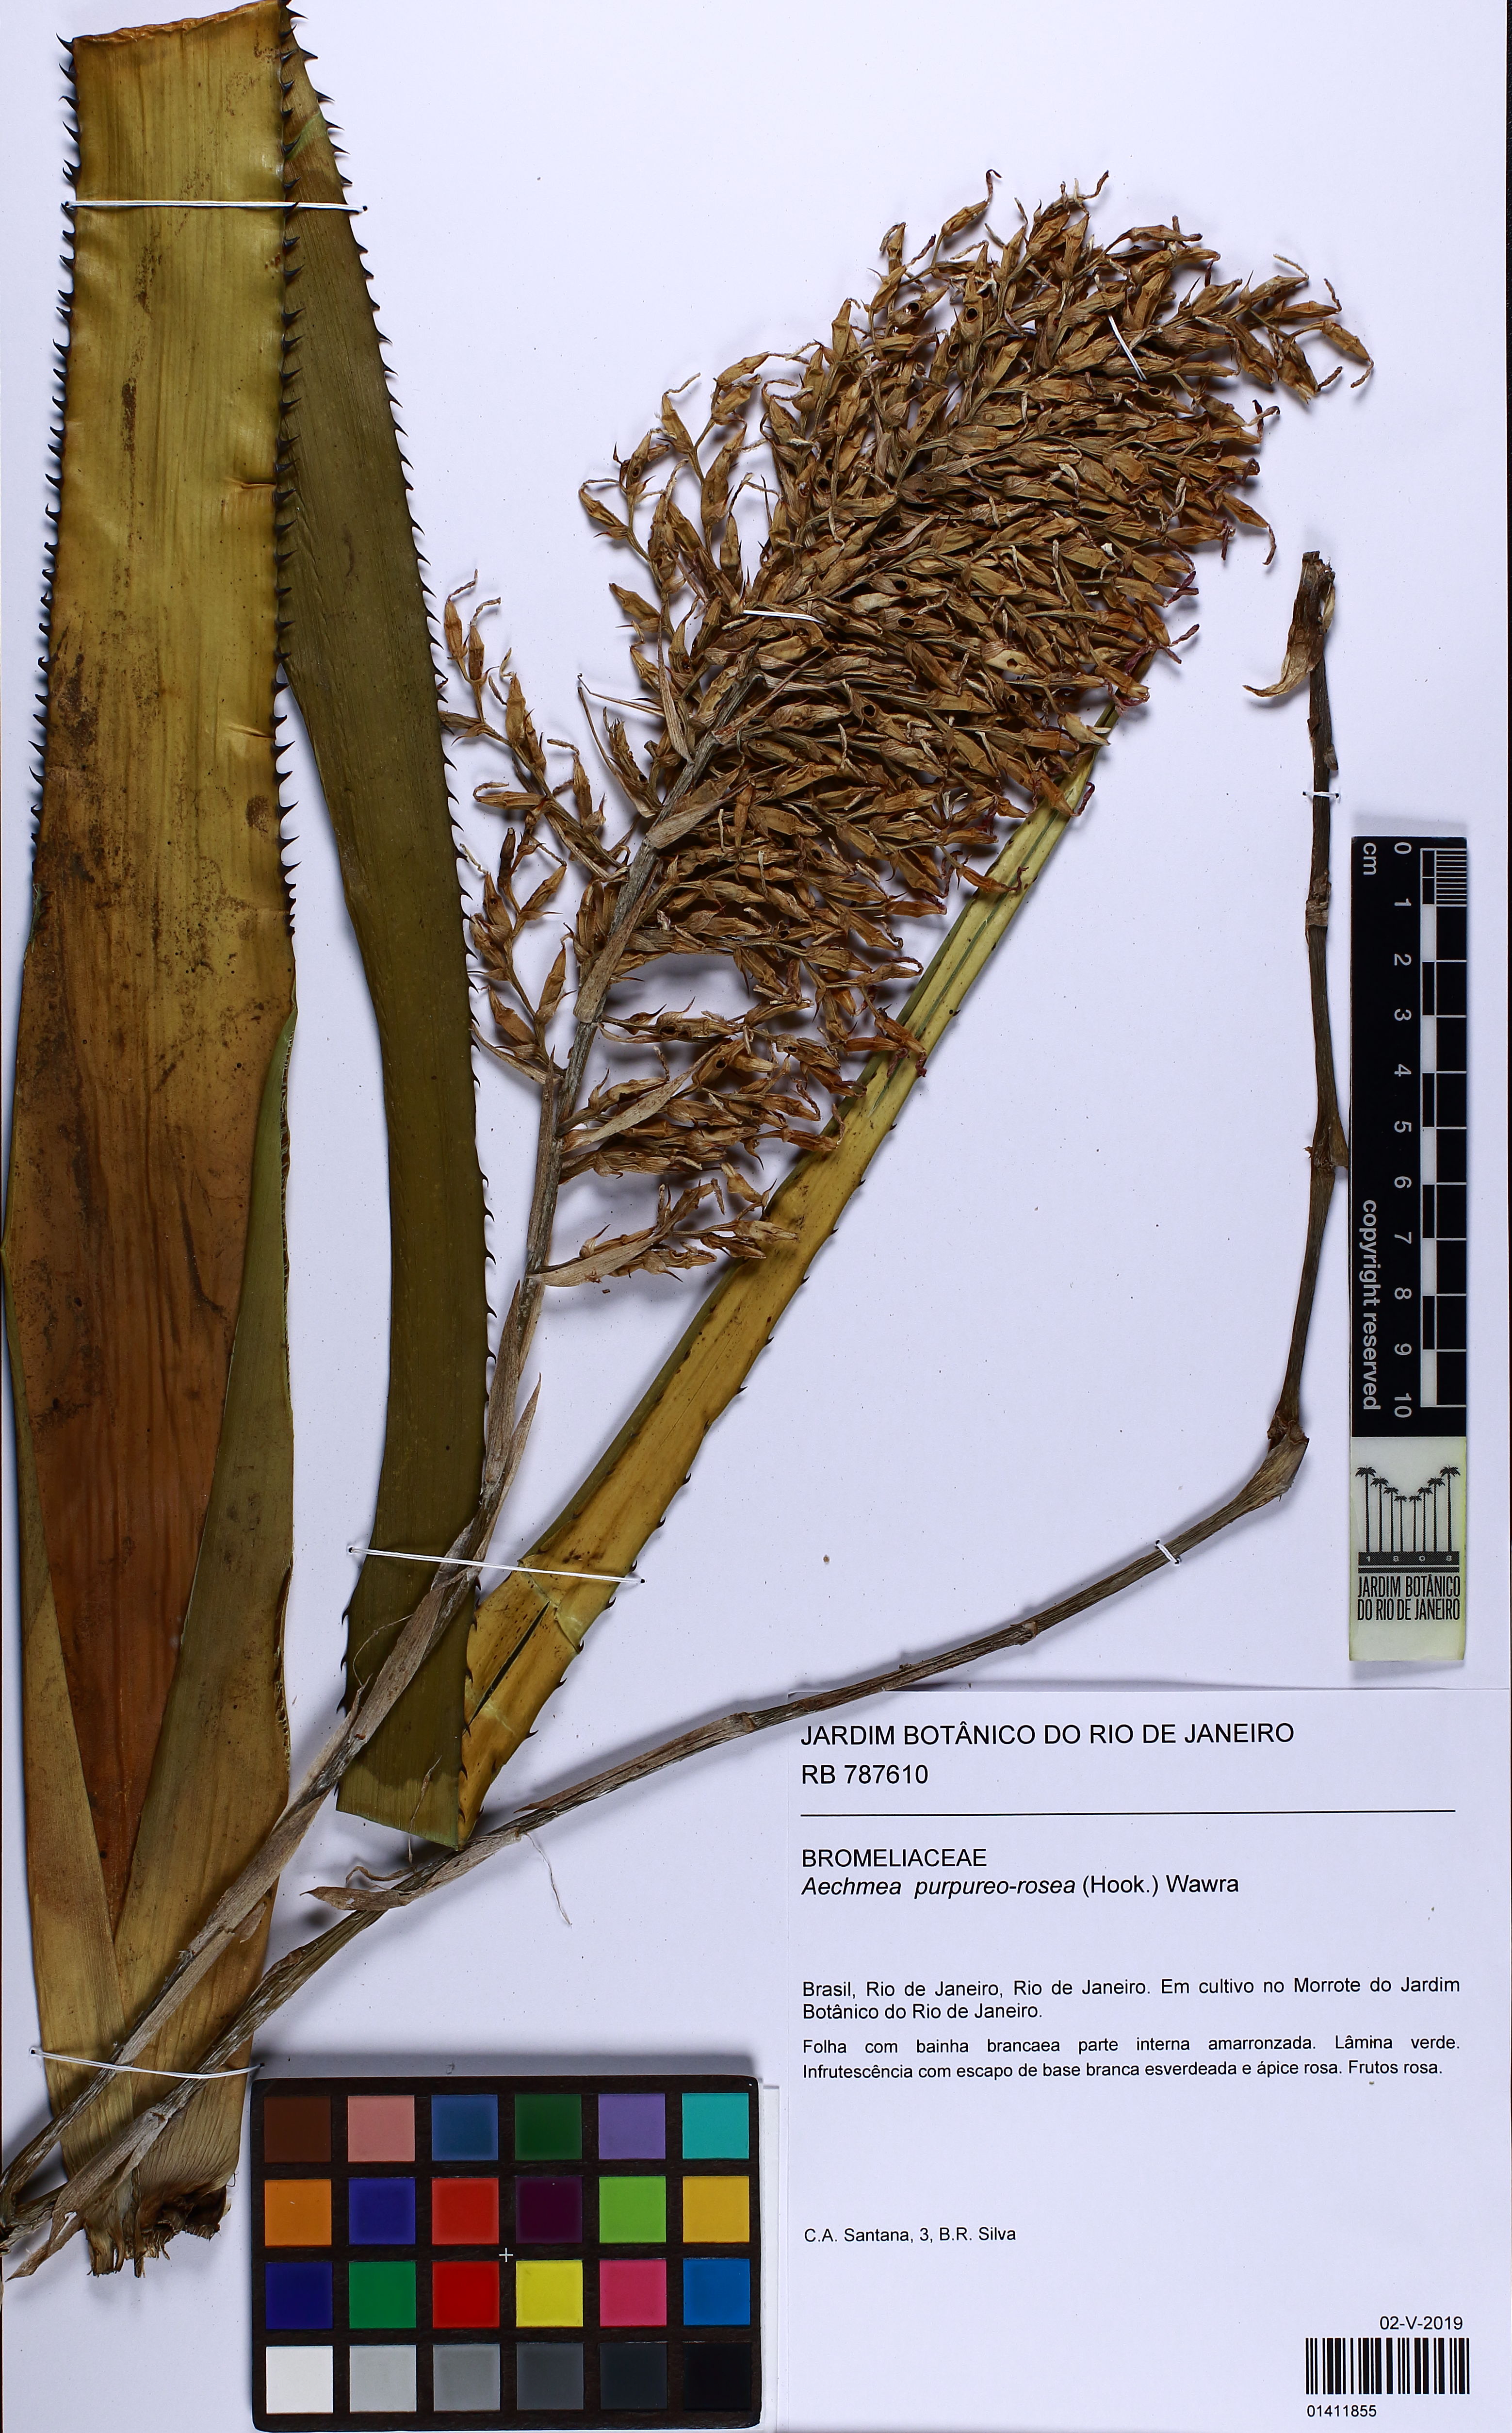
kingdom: Plantae
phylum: Tracheophyta
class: Liliopsida
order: Poales
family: Bromeliaceae
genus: Aechmea
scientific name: Aechmea purpureorosea
